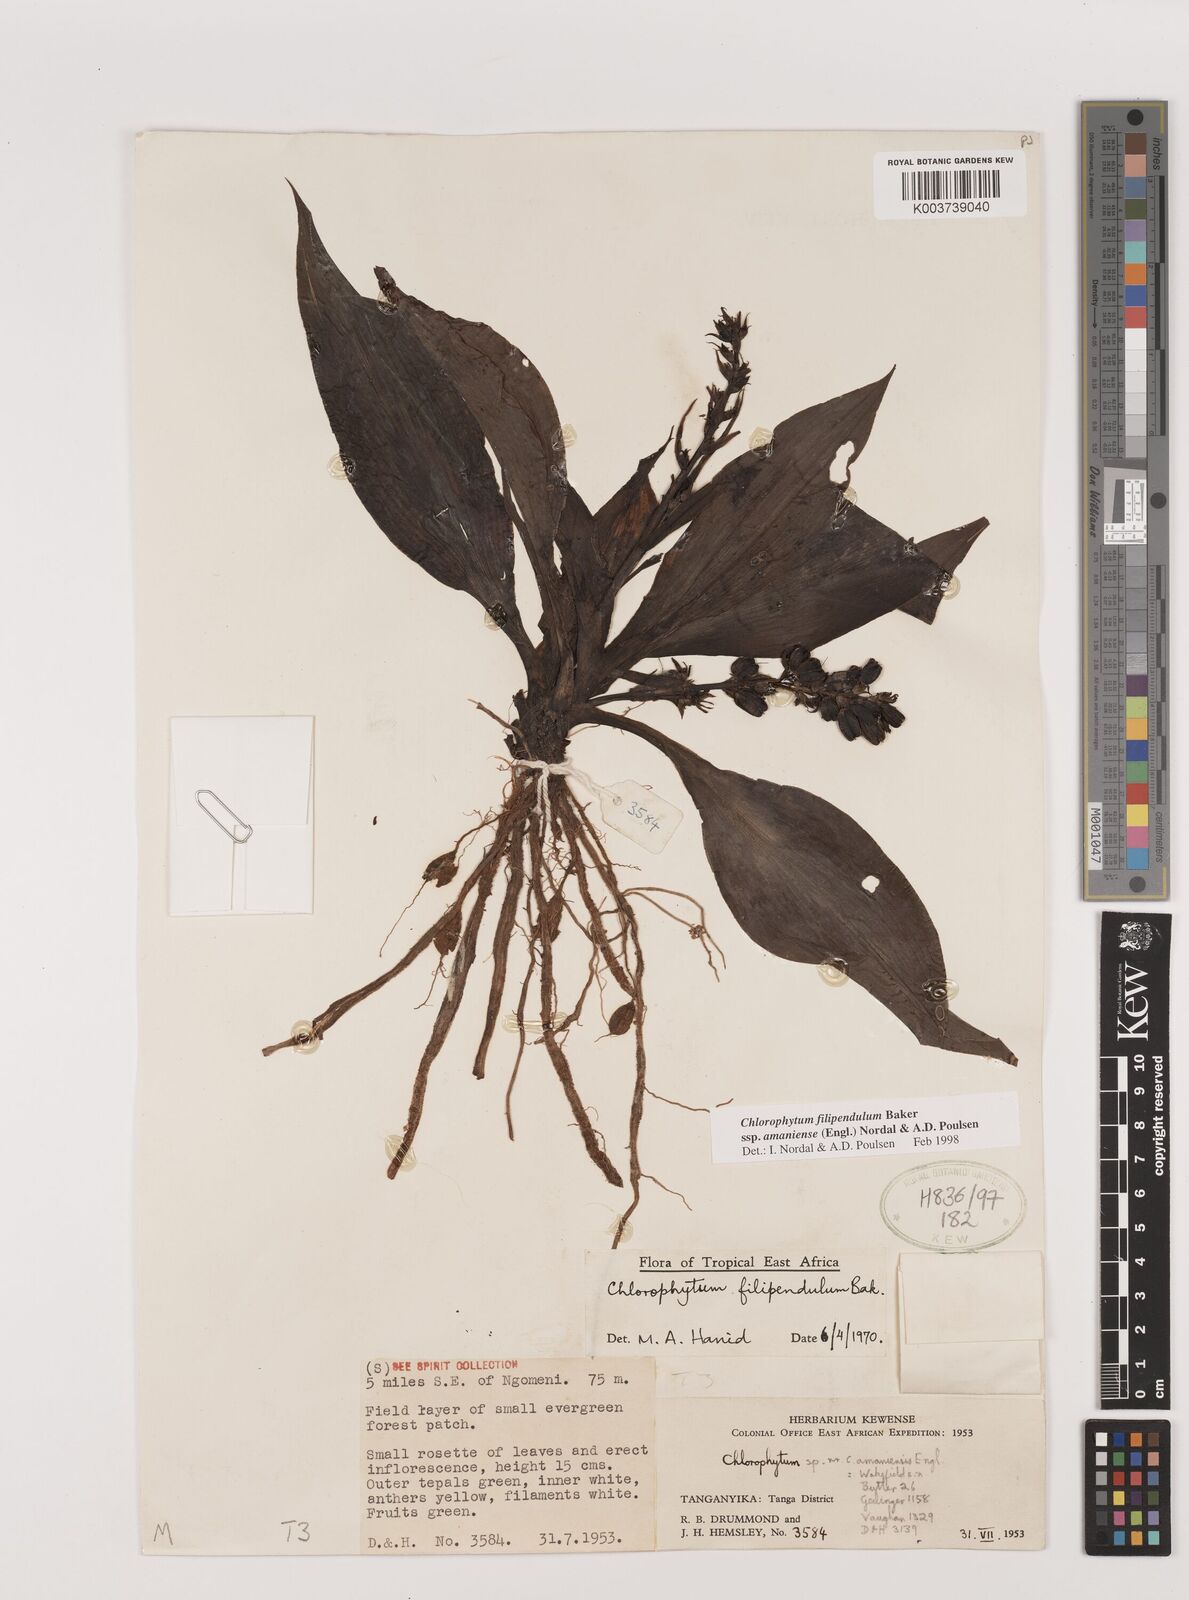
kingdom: Plantae
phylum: Tracheophyta
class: Liliopsida
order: Asparagales
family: Asparagaceae
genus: Chlorophytum
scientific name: Chlorophytum filipendulum
